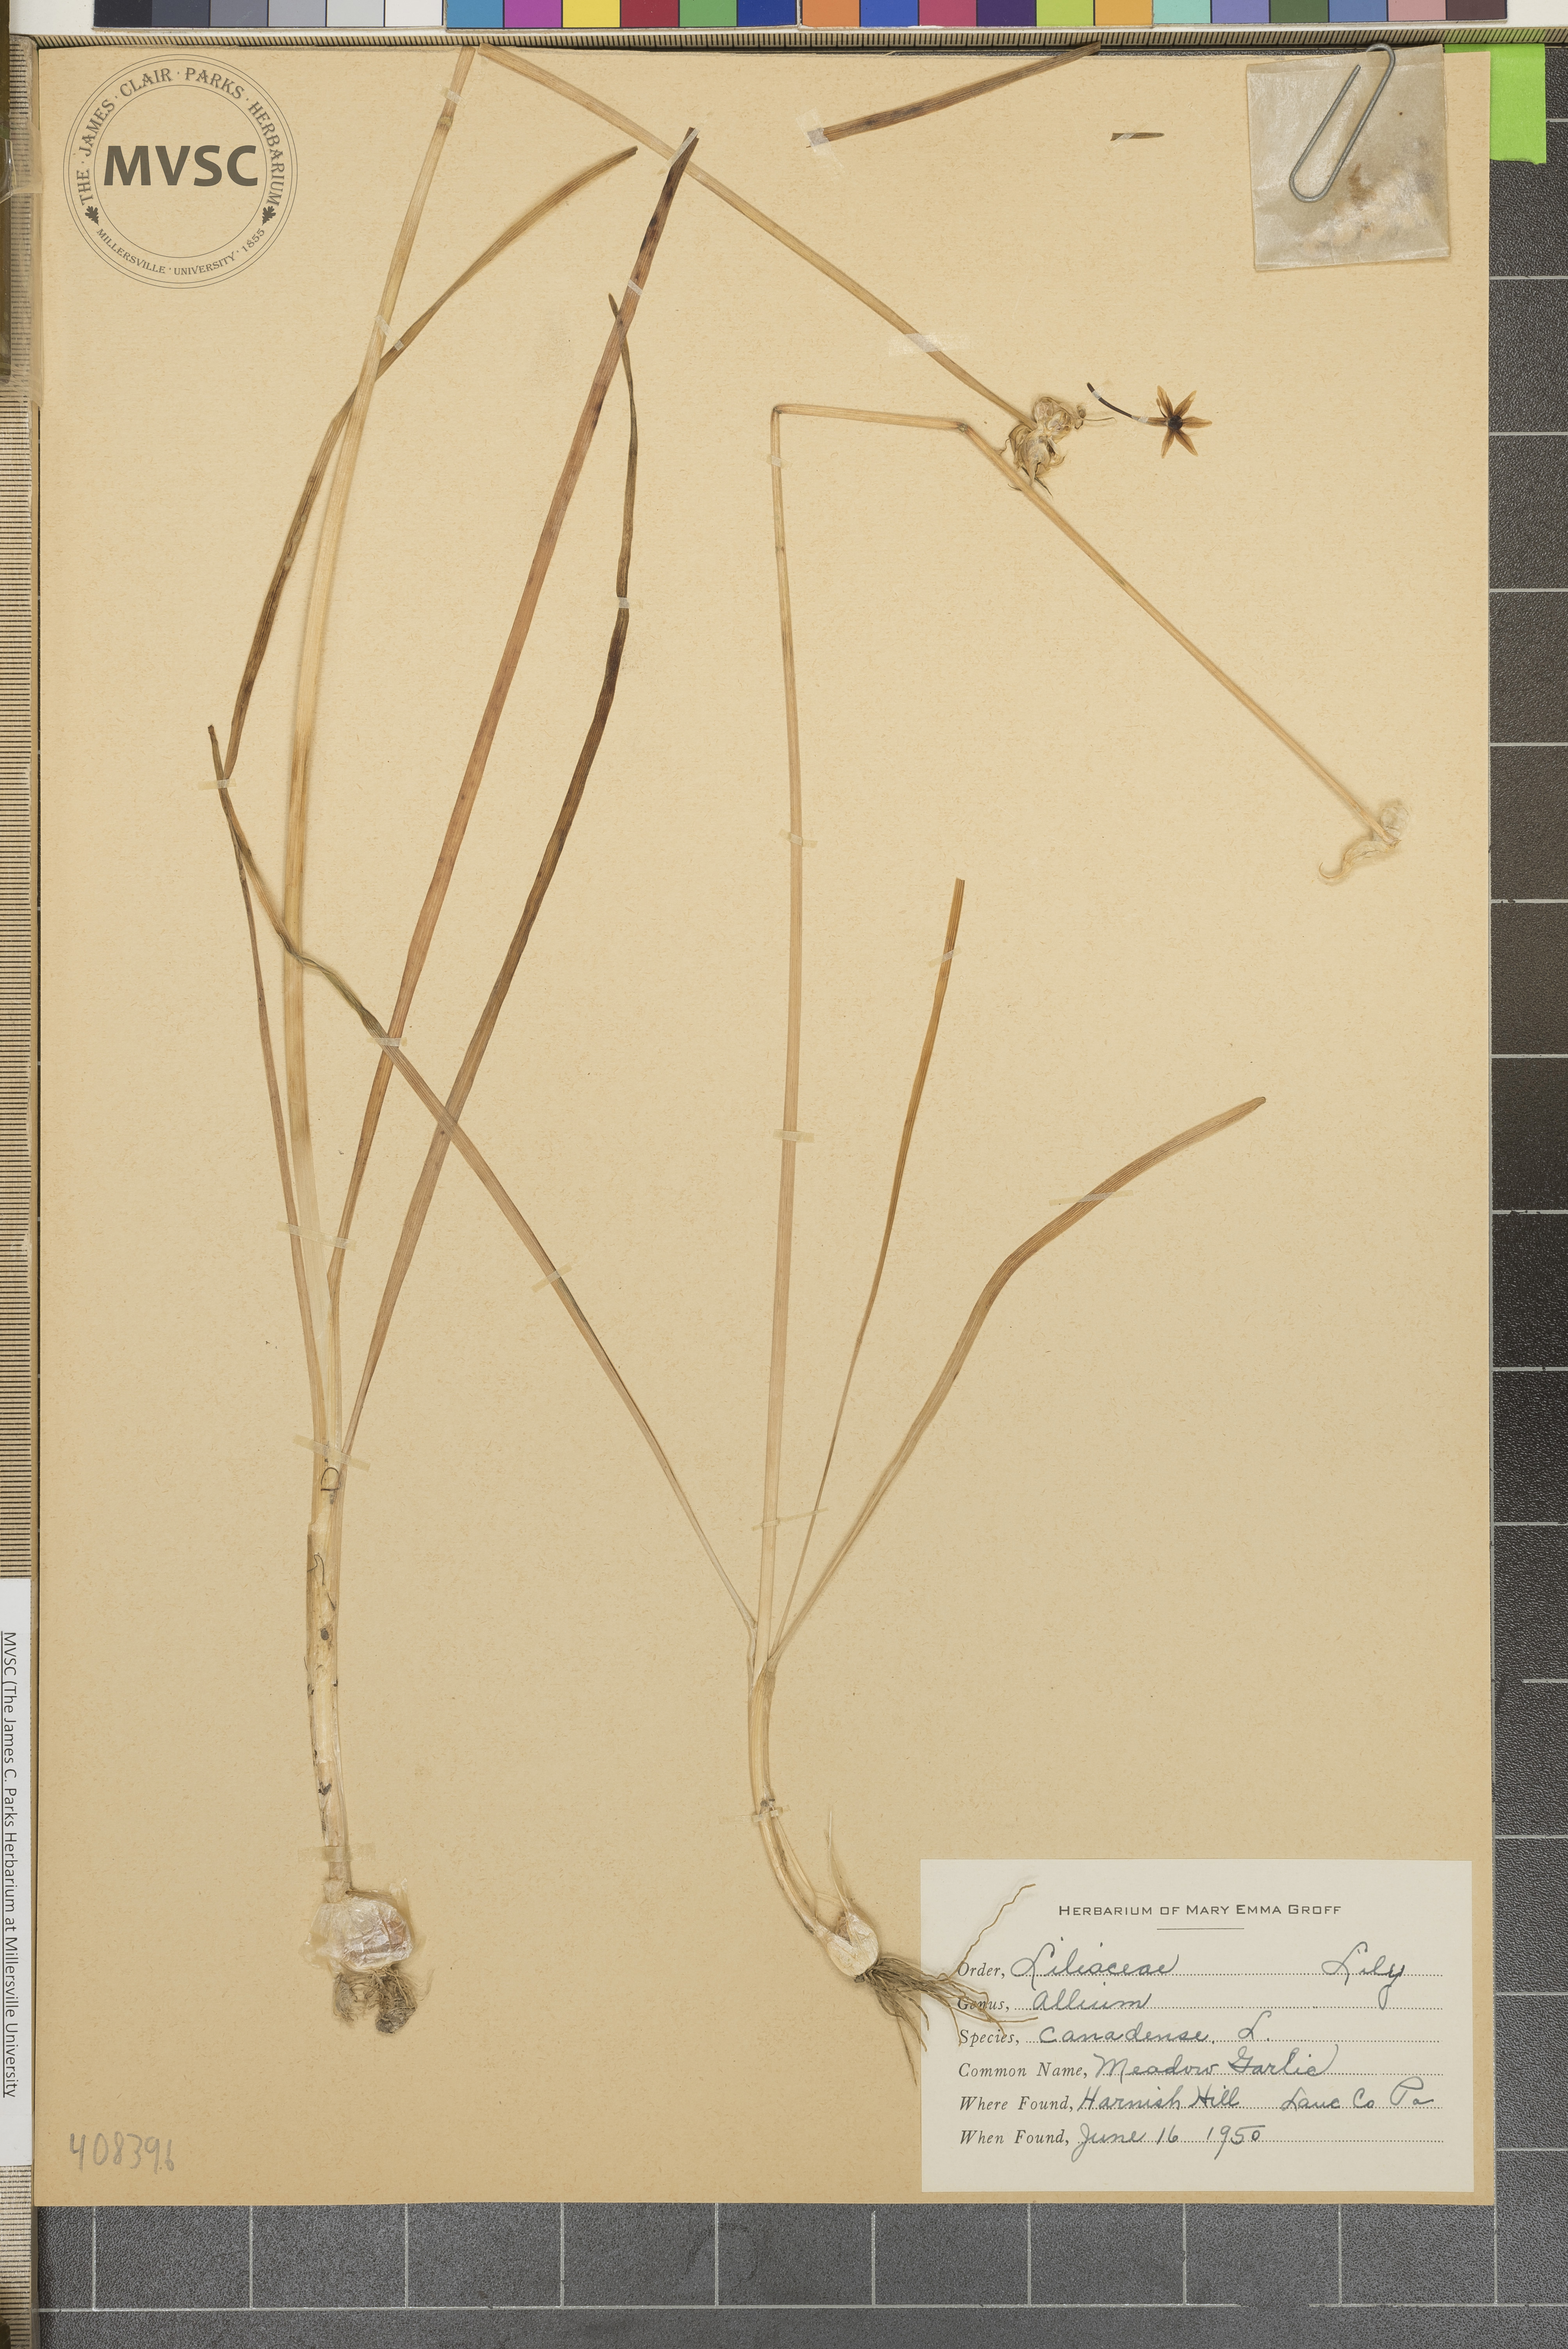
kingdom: Plantae
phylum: Tracheophyta
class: Liliopsida
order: Asparagales
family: Amaryllidaceae
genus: Allium
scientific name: Allium canadense
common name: Meadow Garlic
